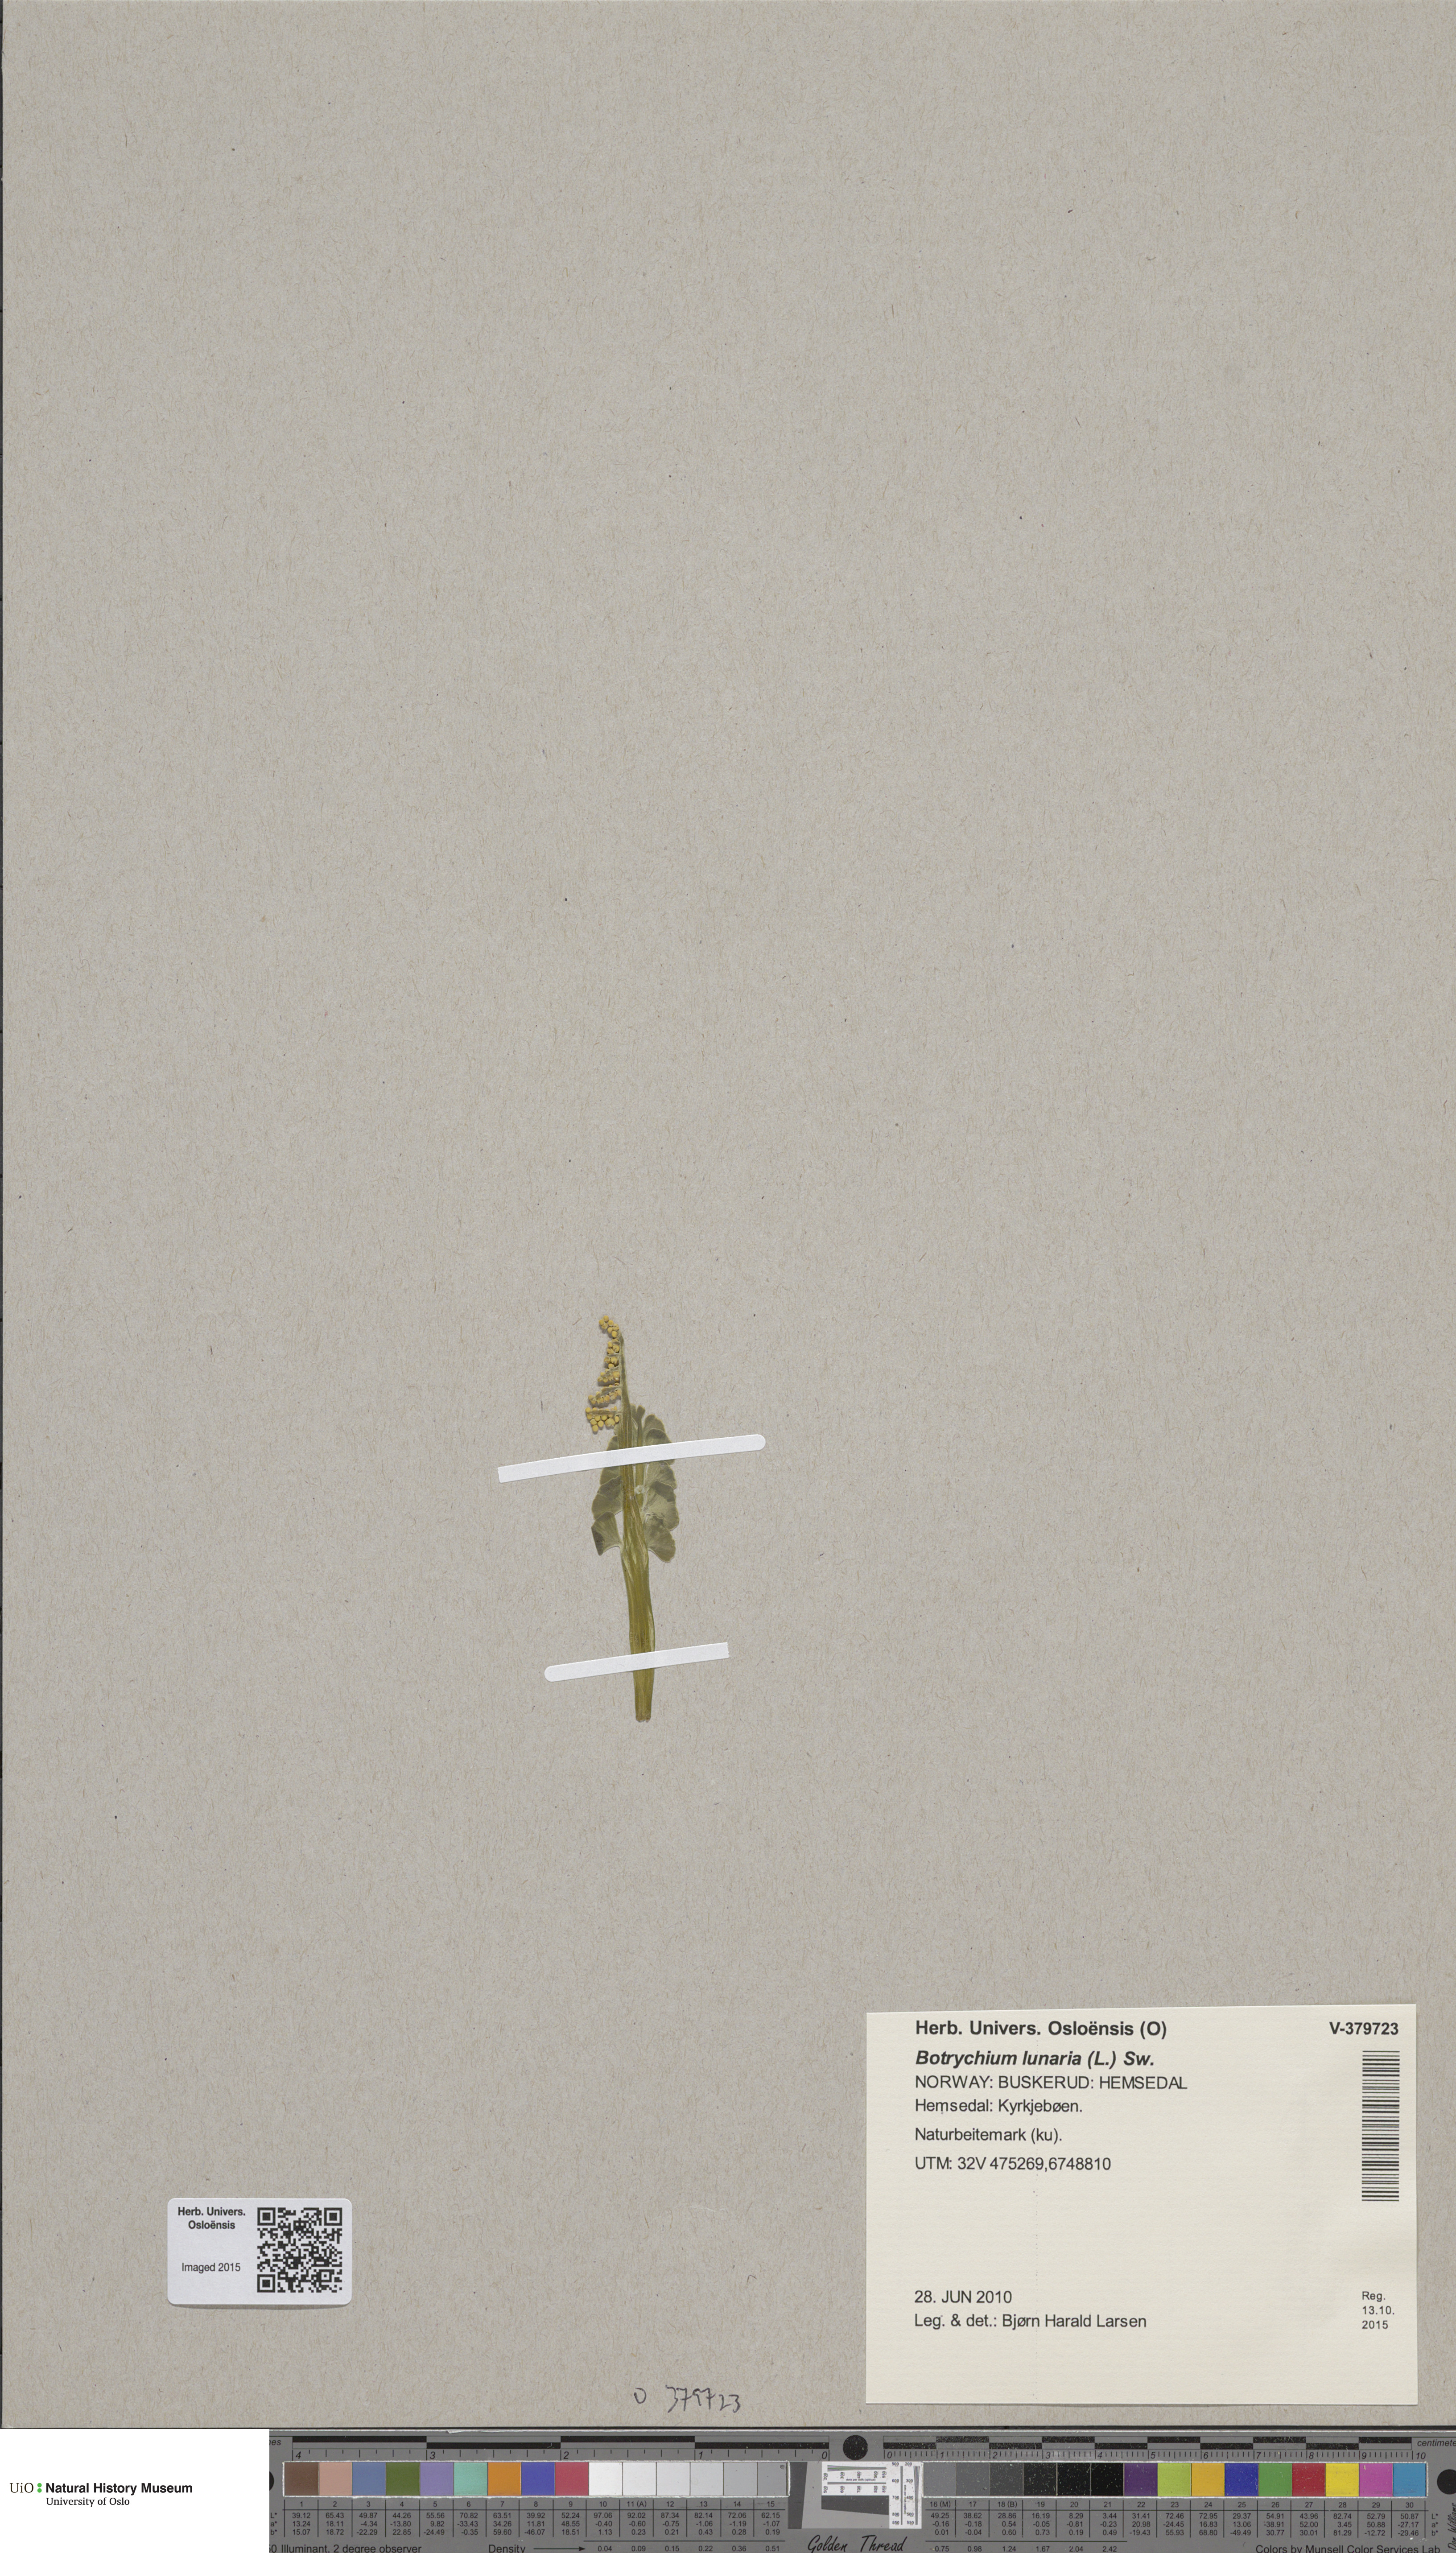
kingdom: Plantae
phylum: Tracheophyta
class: Polypodiopsida
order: Ophioglossales
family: Ophioglossaceae
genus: Botrychium
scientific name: Botrychium lunaria
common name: Moonwort
